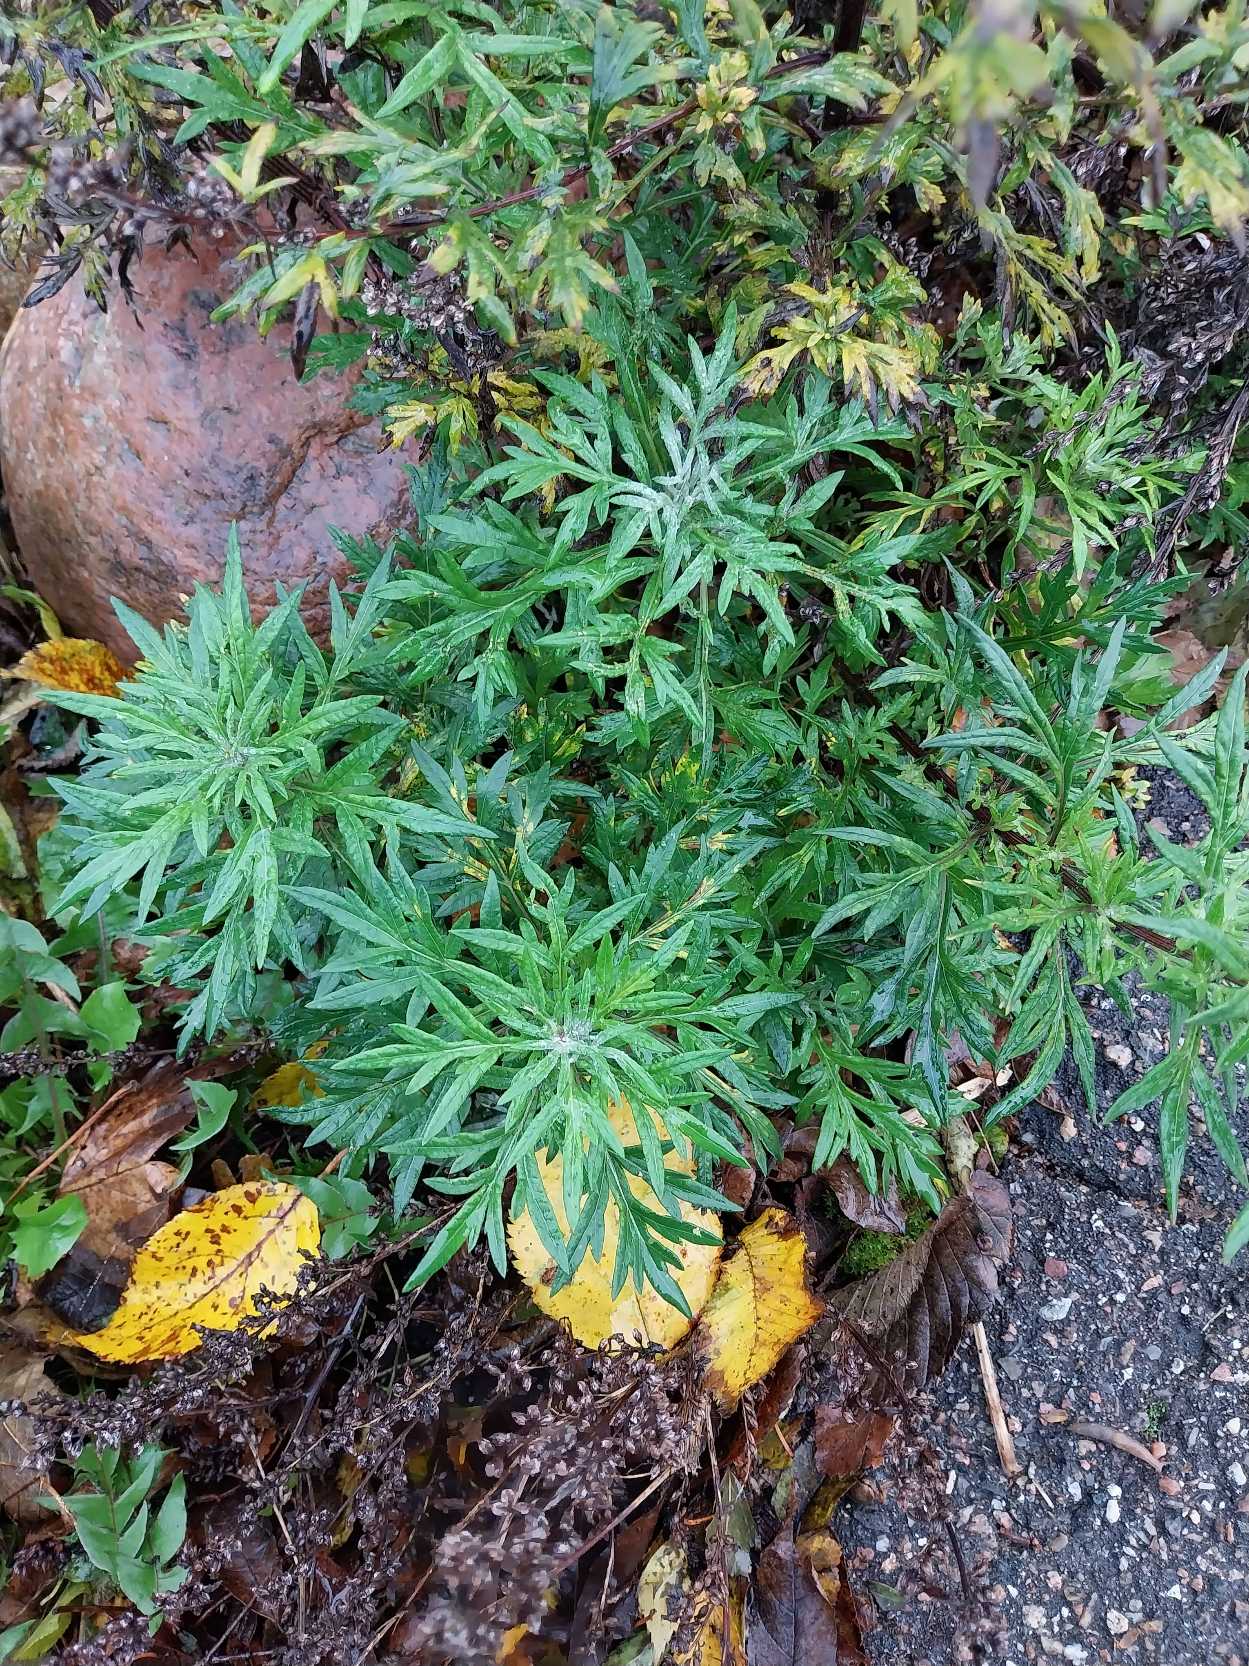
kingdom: Plantae
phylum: Tracheophyta
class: Magnoliopsida
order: Asterales
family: Asteraceae
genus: Artemisia
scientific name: Artemisia vulgaris
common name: Grå-bynke
